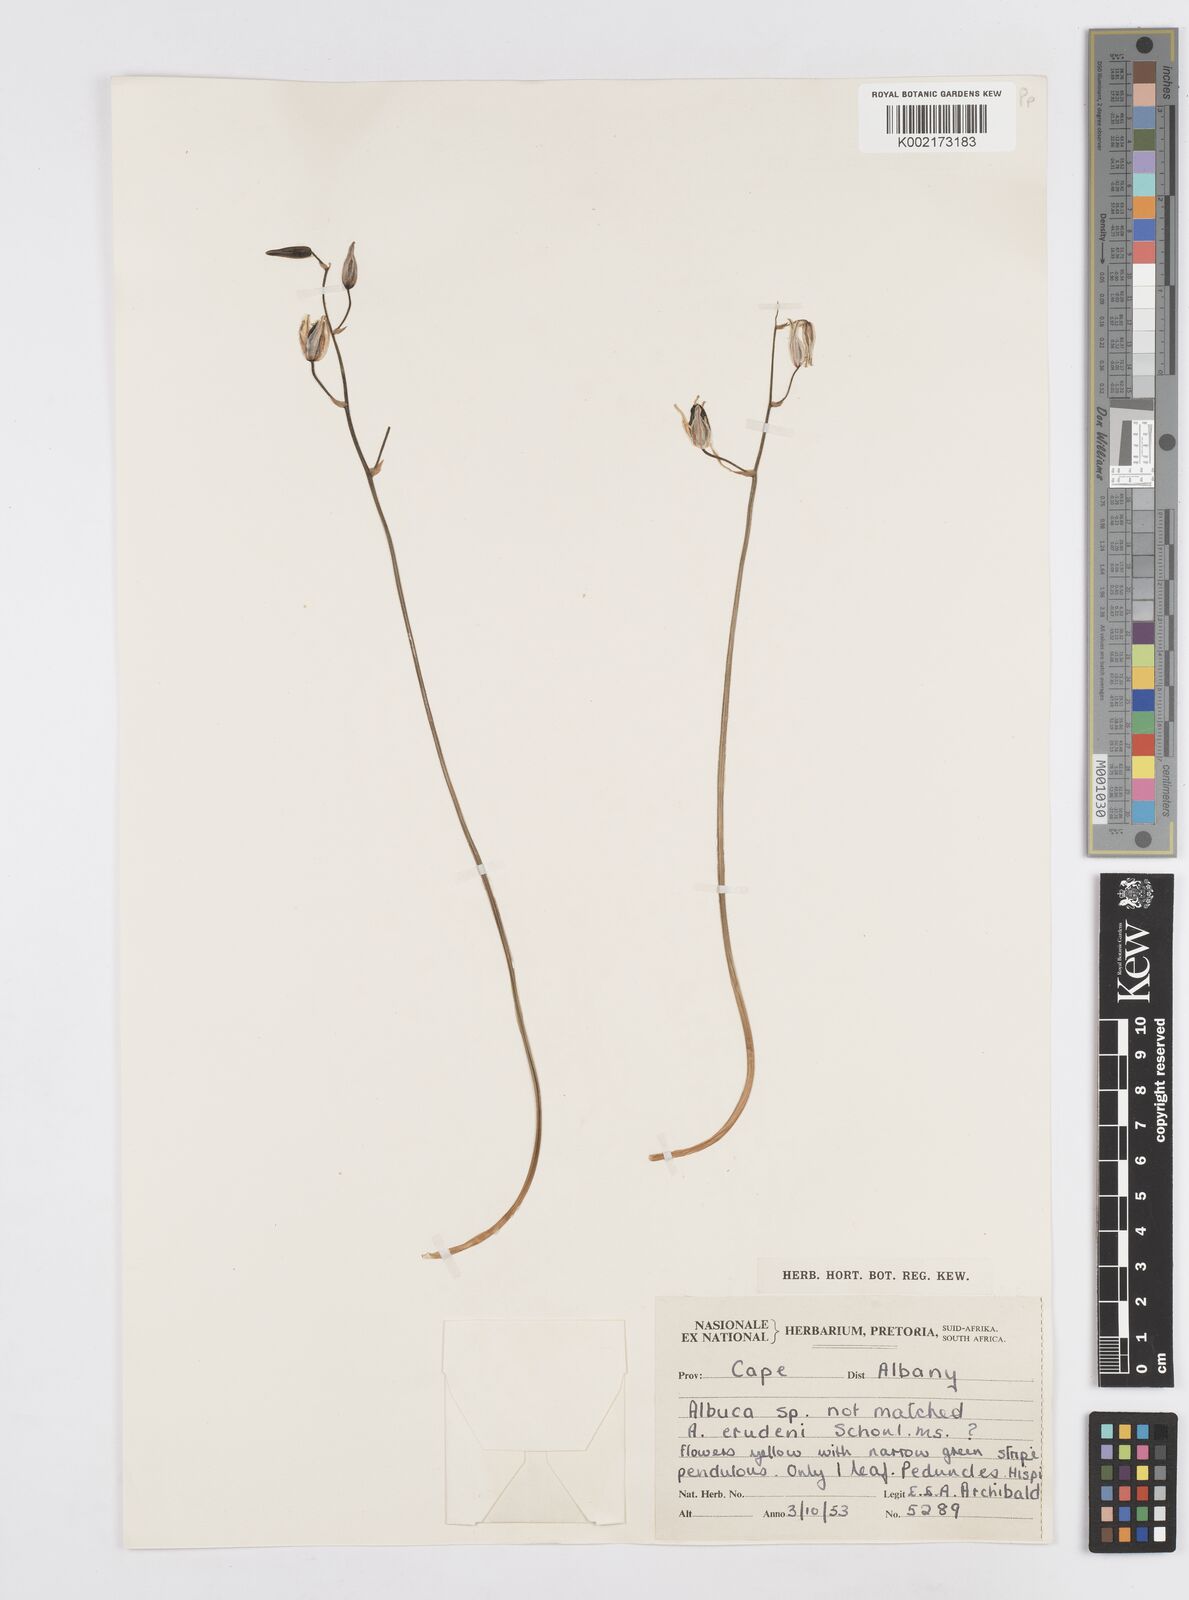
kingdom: Plantae
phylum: Tracheophyta
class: Liliopsida
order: Asparagales
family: Asparagaceae
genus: Albuca
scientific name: Albuca
